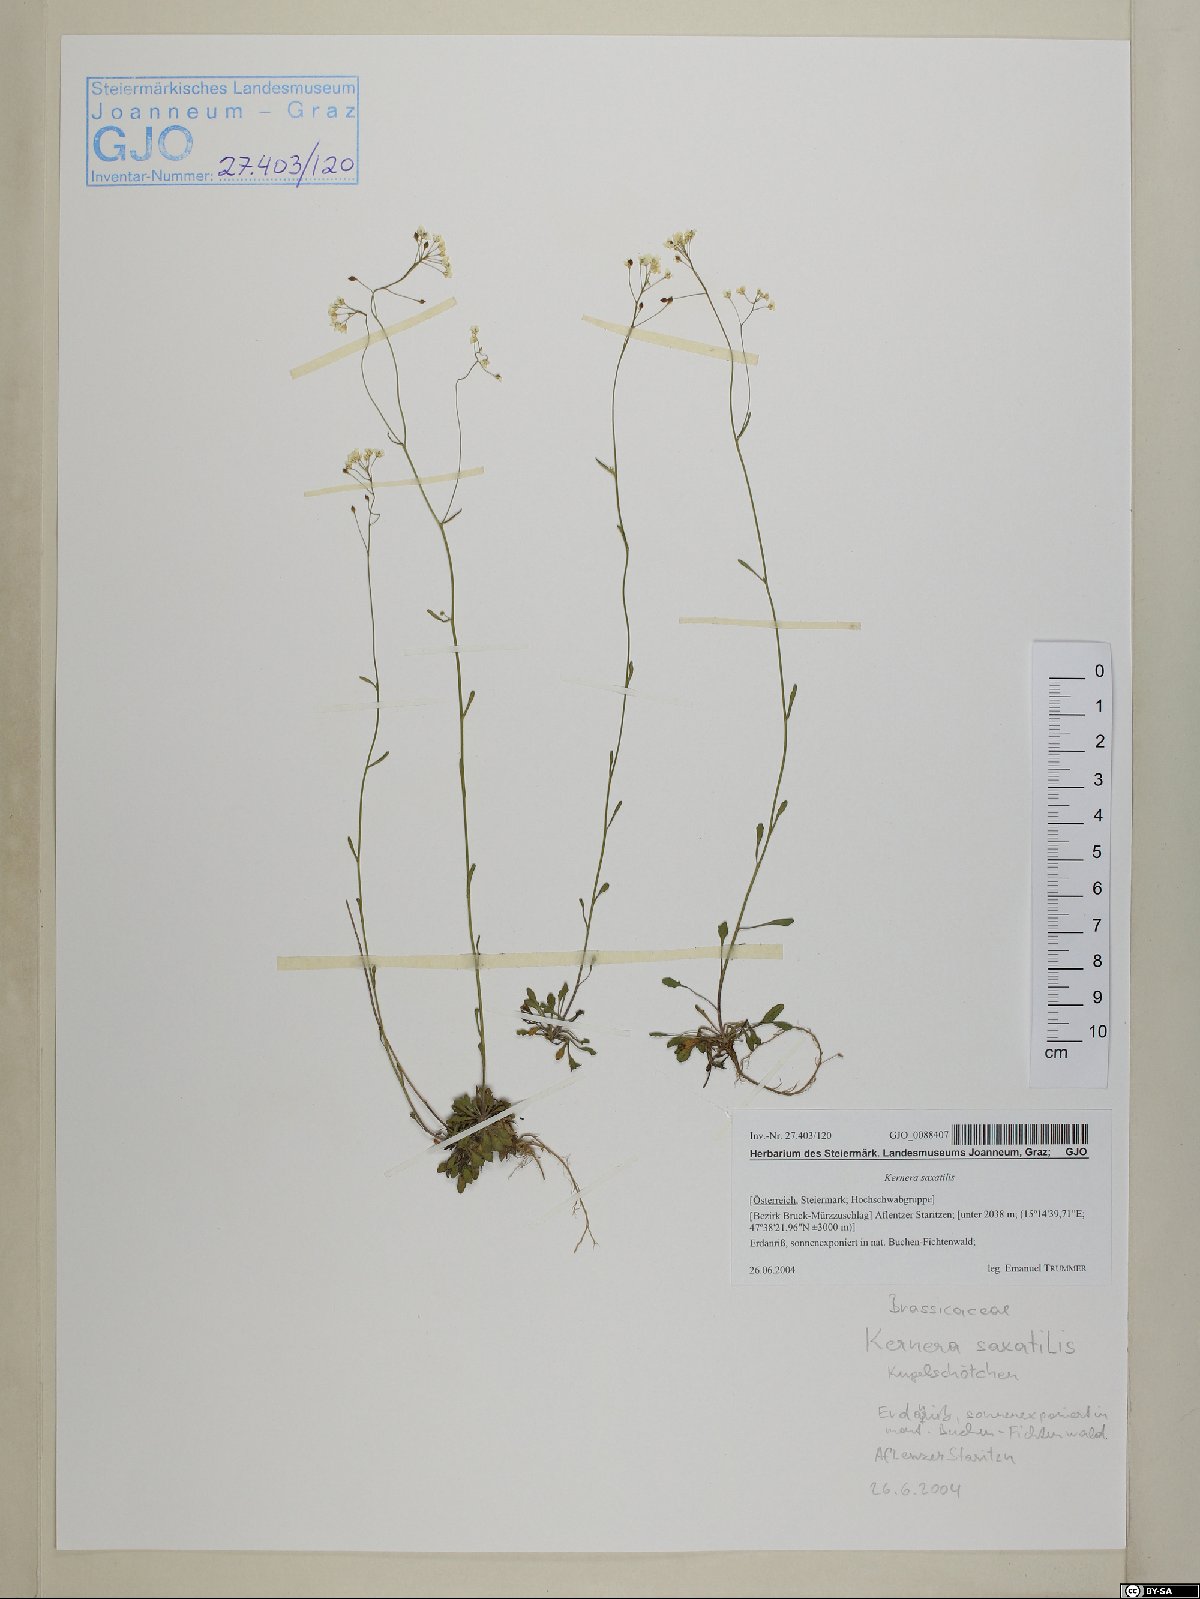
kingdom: Plantae
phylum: Tracheophyta
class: Magnoliopsida
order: Brassicales
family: Brassicaceae
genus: Kernera
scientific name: Kernera saxatilis
